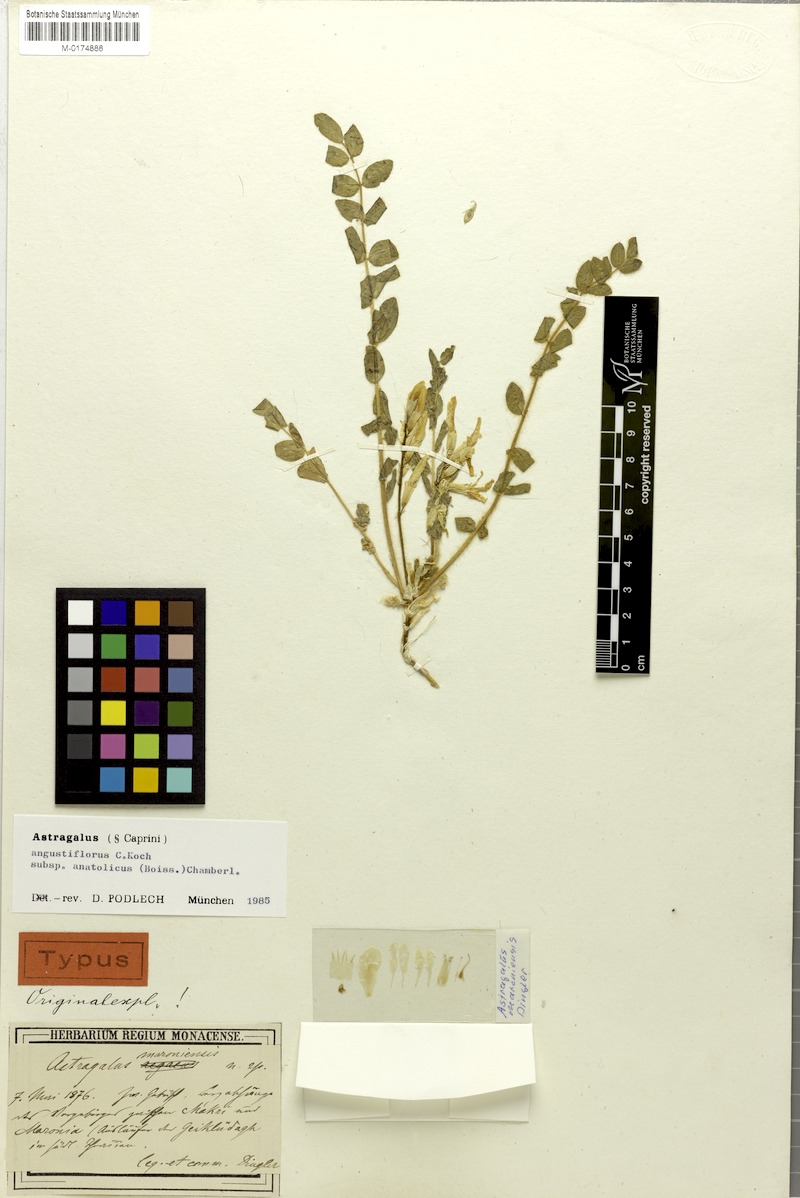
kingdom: Plantae
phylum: Tracheophyta
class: Magnoliopsida
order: Fabales
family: Fabaceae
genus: Astragalus
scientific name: Astragalus angustiflorus
